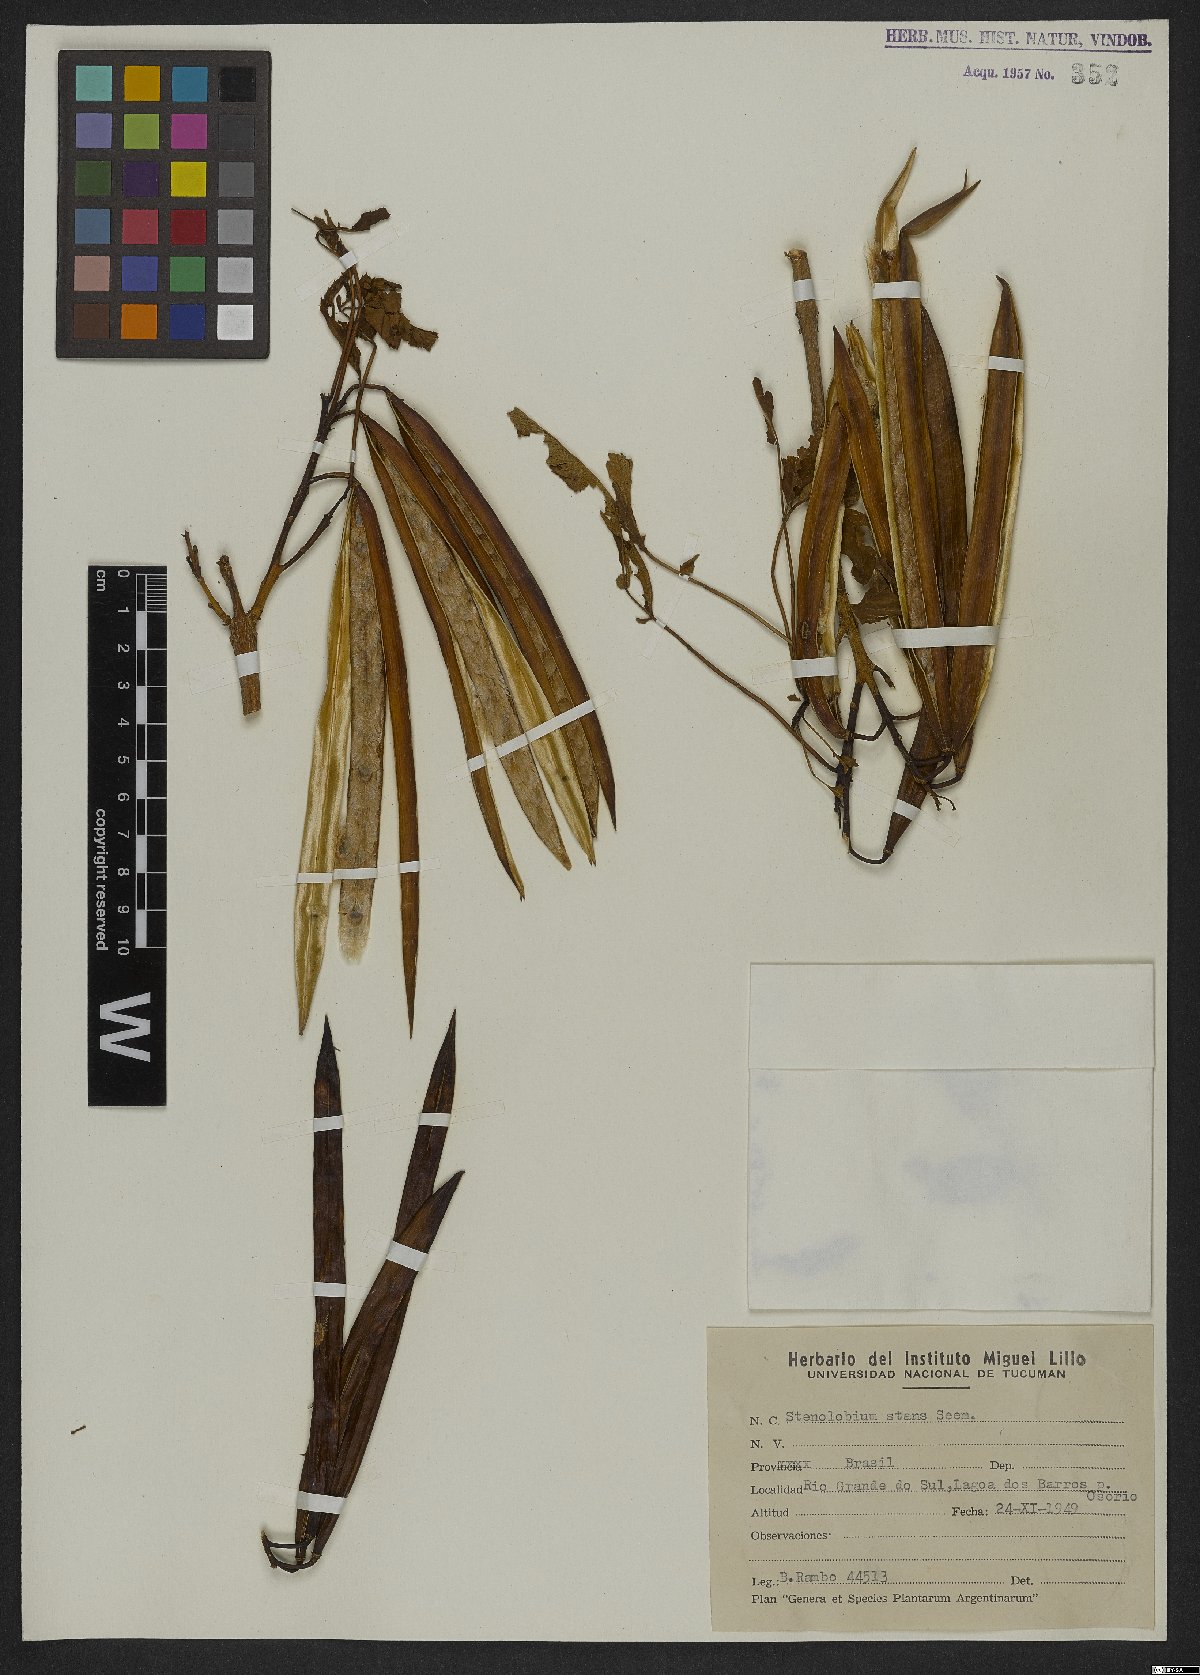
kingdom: Plantae
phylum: Tracheophyta
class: Magnoliopsida
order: Lamiales
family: Bignoniaceae
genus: Tecoma
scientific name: Tecoma stans
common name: Yellow trumpetbush
